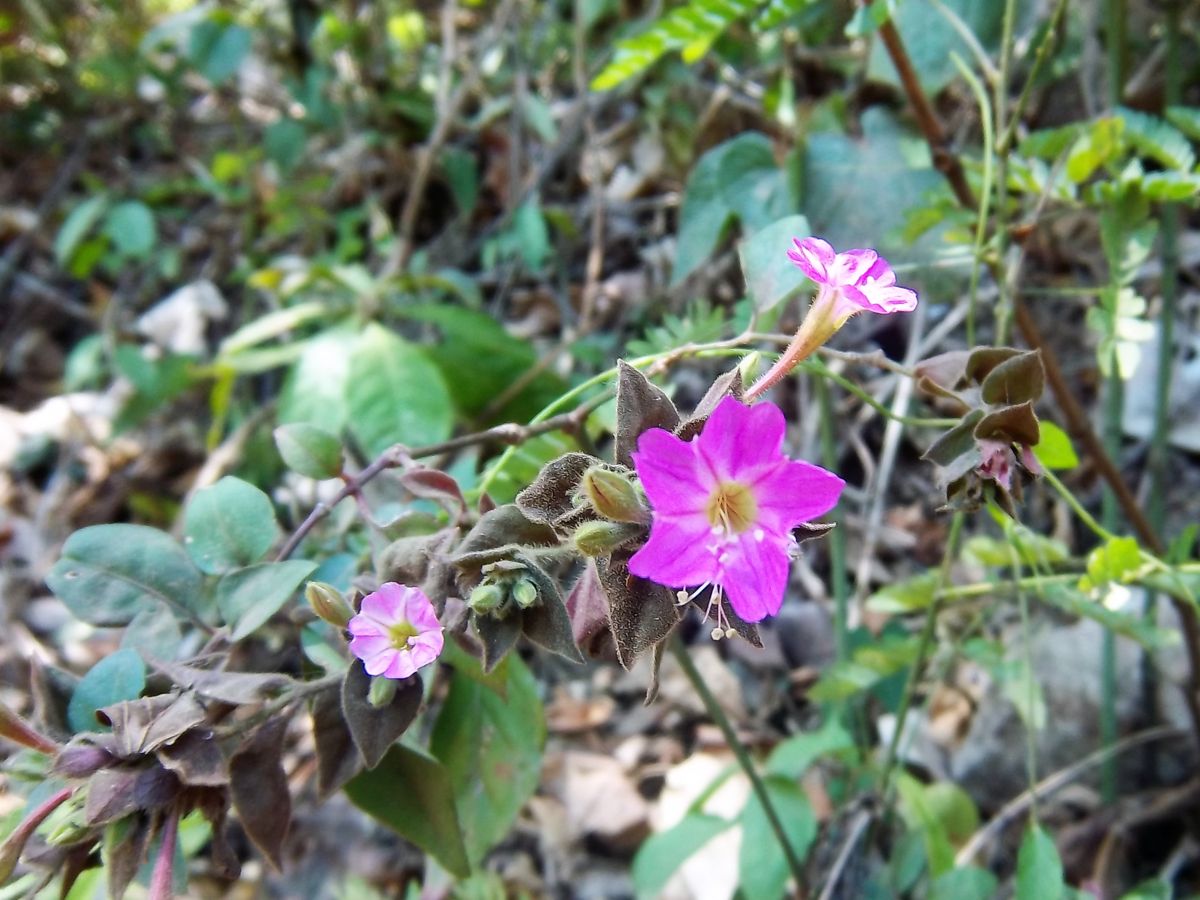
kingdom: Plantae
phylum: Tracheophyta
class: Magnoliopsida
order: Caryophyllales
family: Nyctaginaceae
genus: Cuscatlania
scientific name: Cuscatlania vulcanicola
